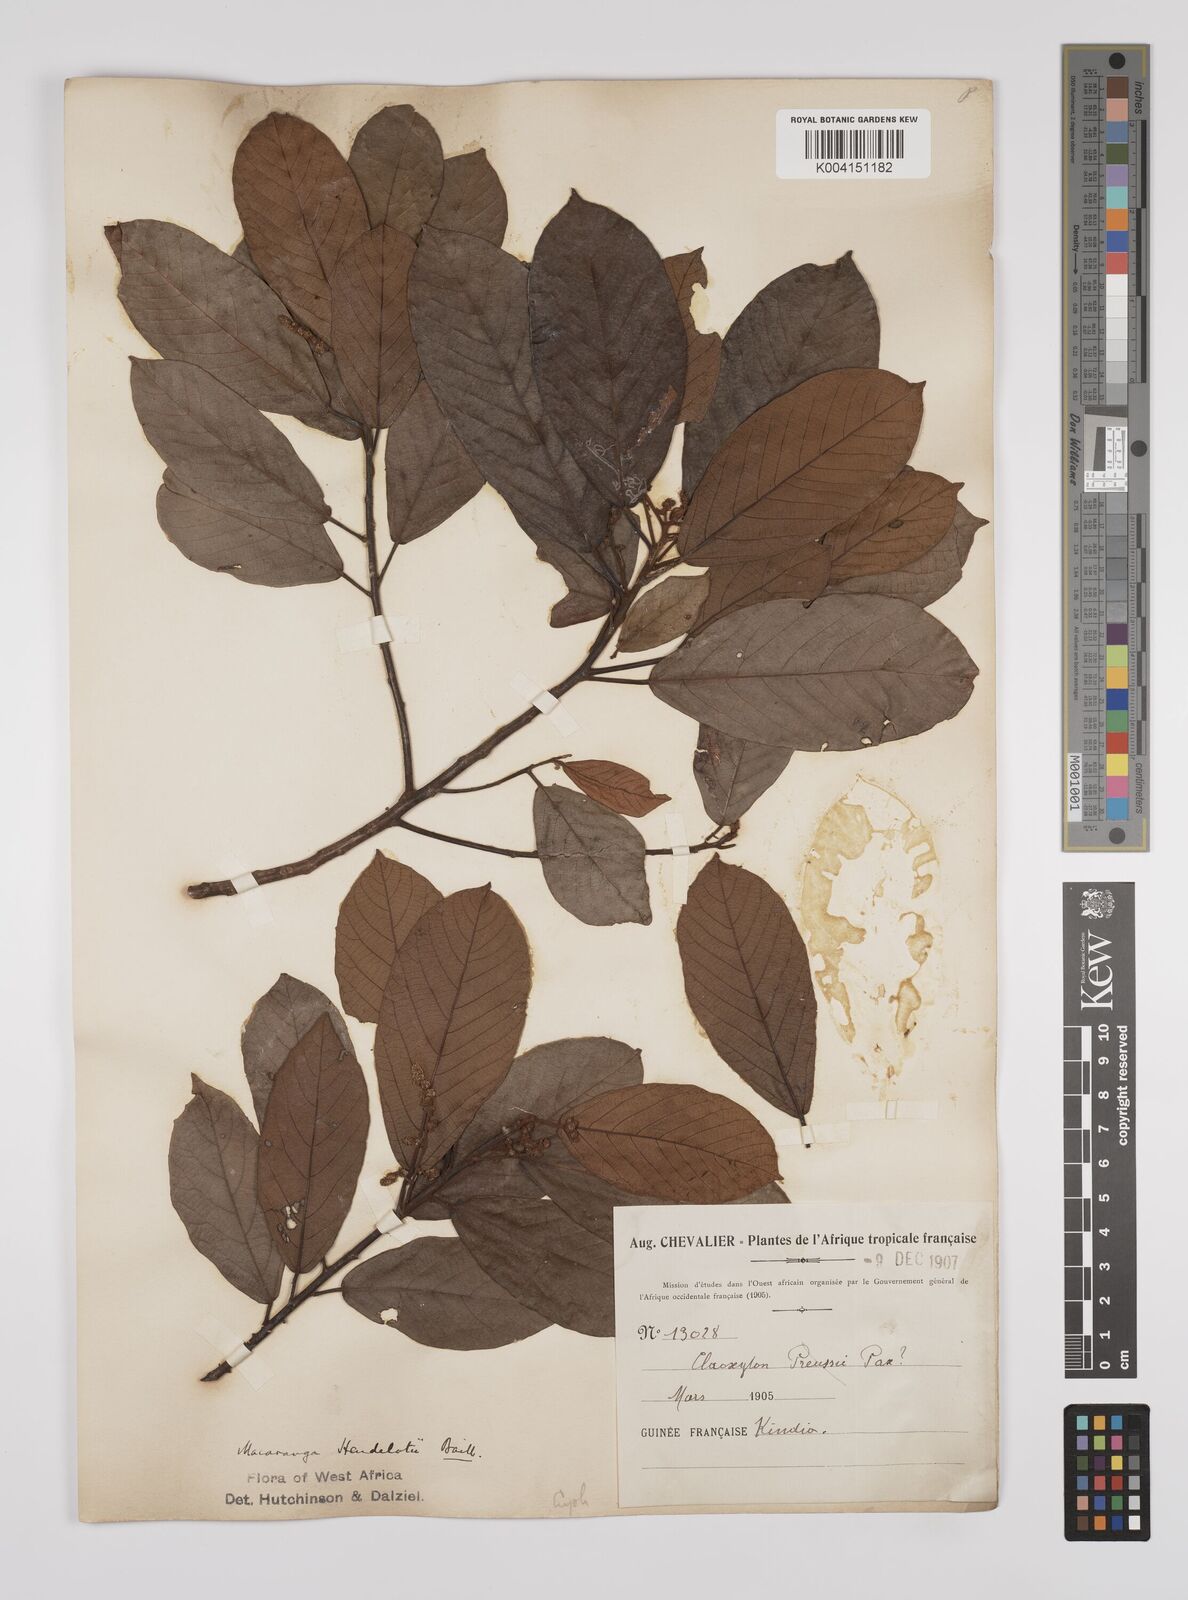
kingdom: Plantae
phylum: Tracheophyta
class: Magnoliopsida
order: Malpighiales
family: Euphorbiaceae
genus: Macaranga
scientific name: Macaranga heudelotii
